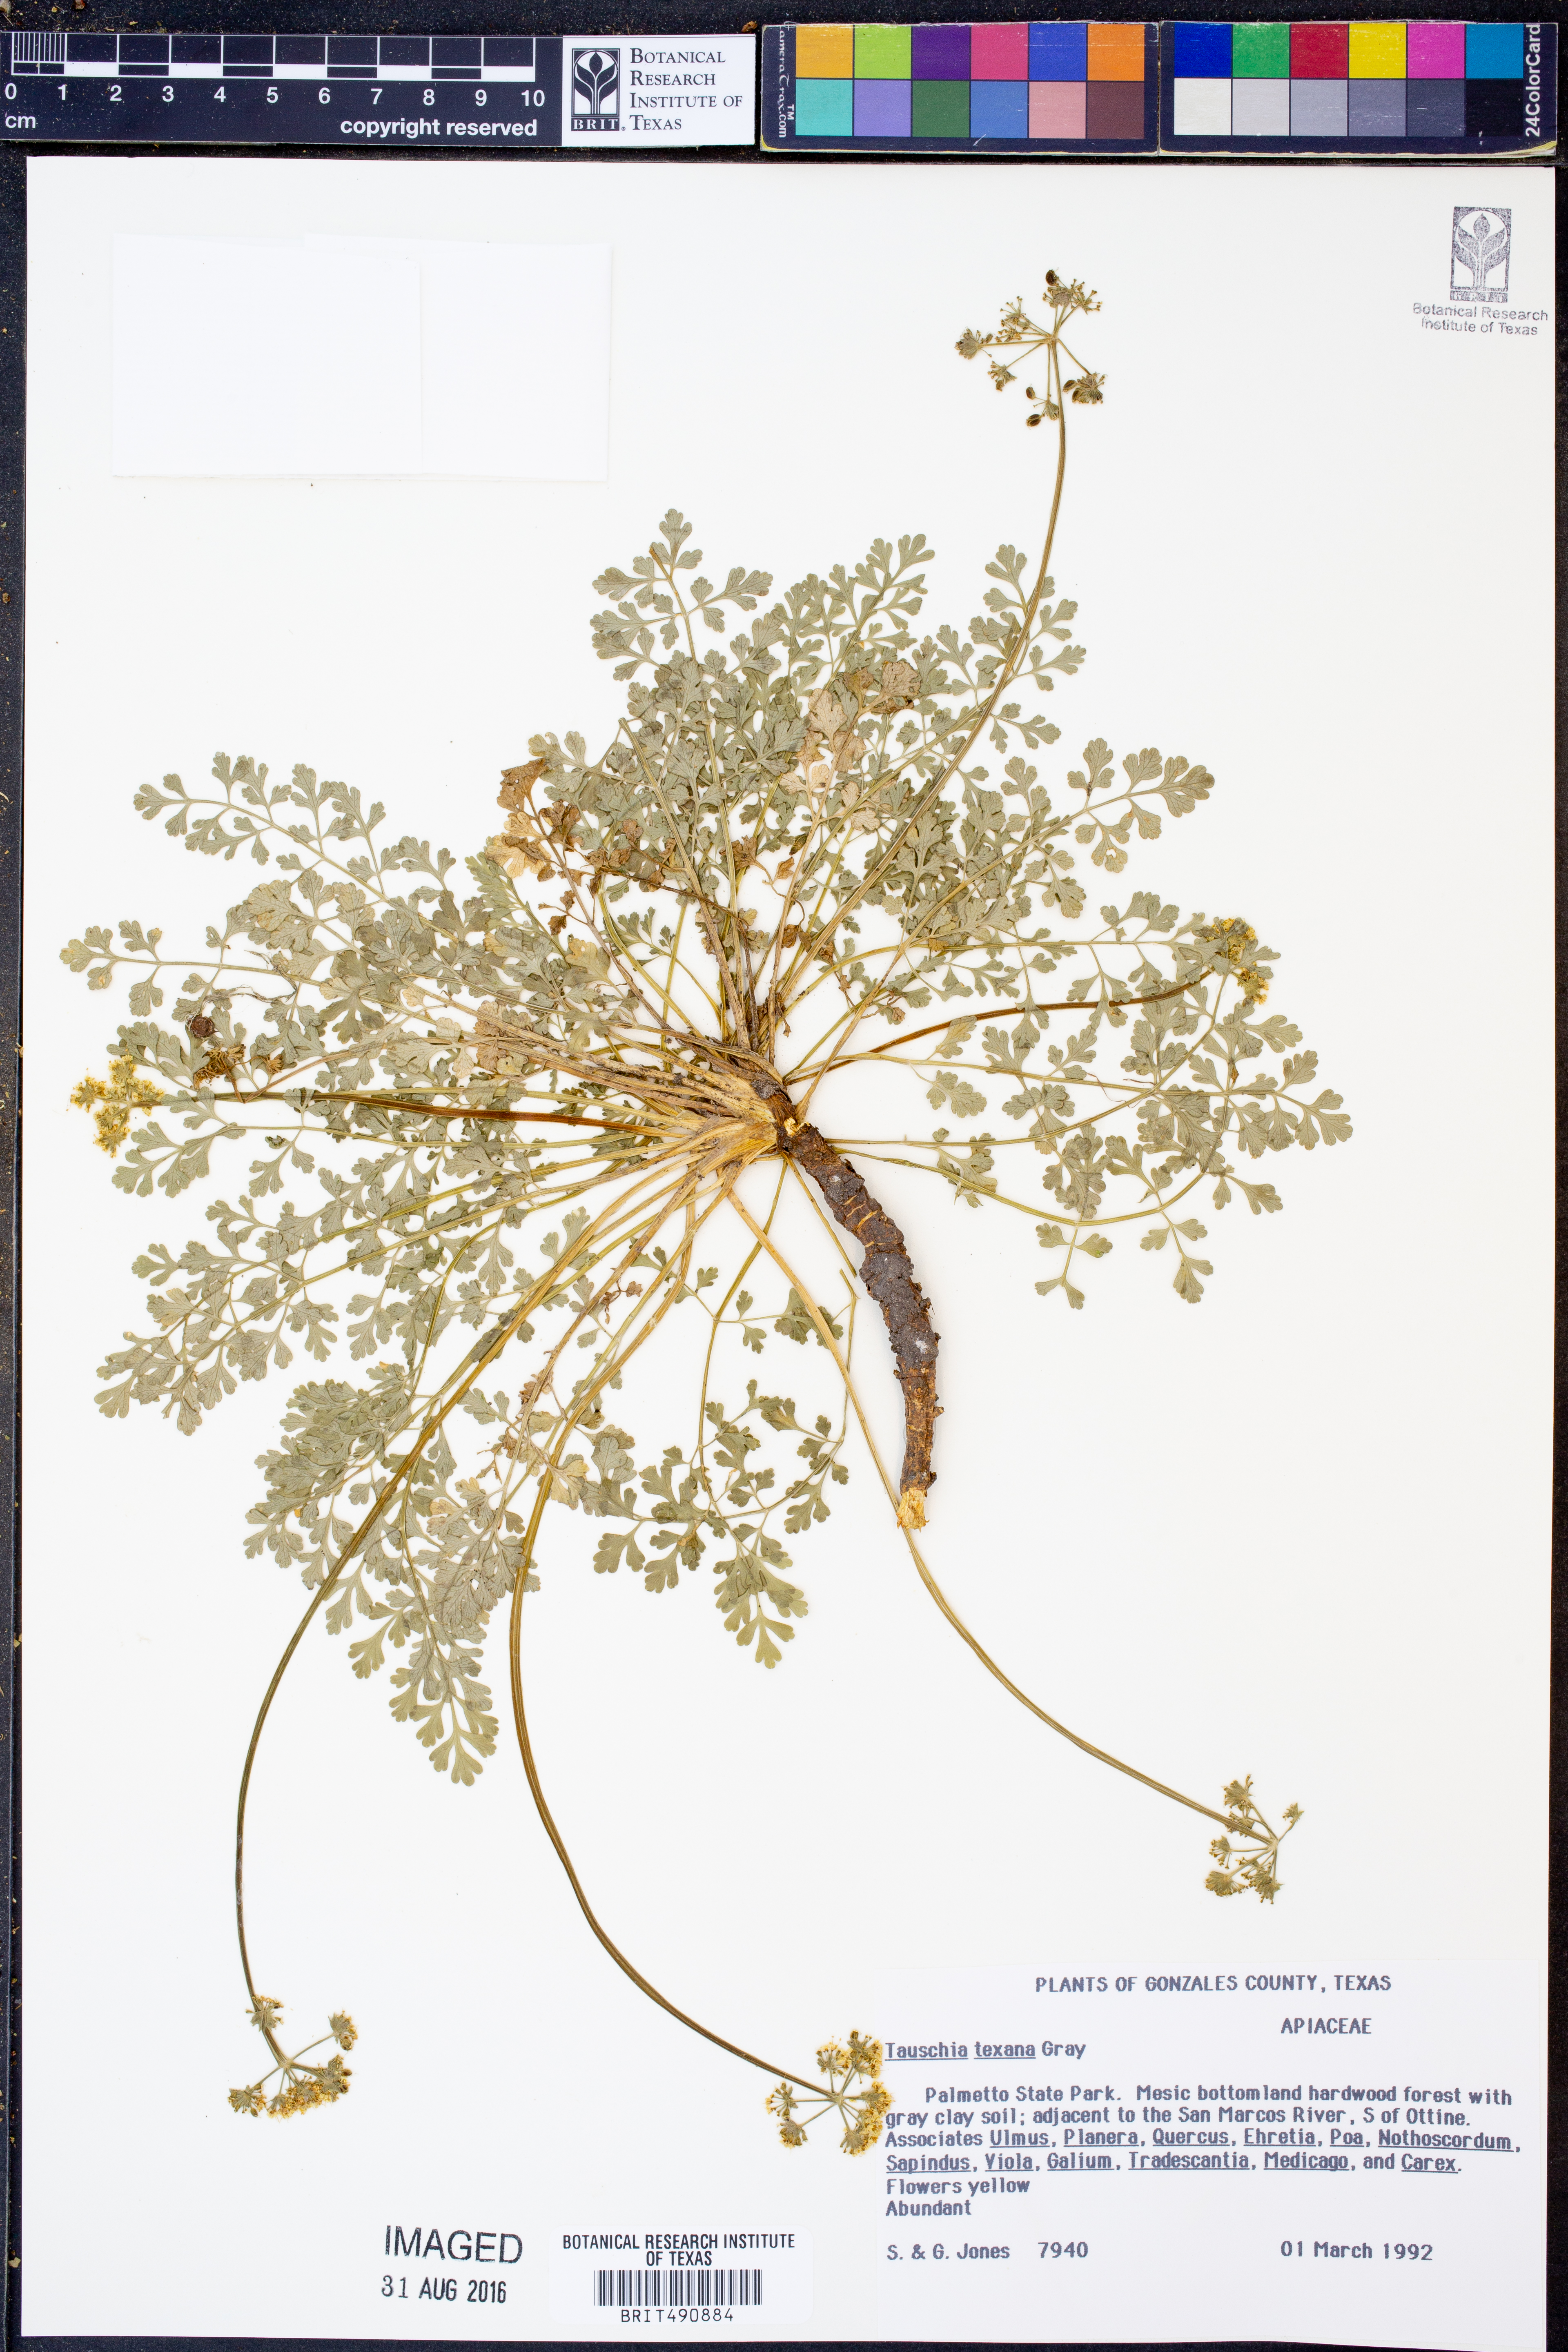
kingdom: Plantae
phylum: Tracheophyta
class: Magnoliopsida
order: Apiales
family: Apiaceae
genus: Tauschia
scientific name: Tauschia texana
